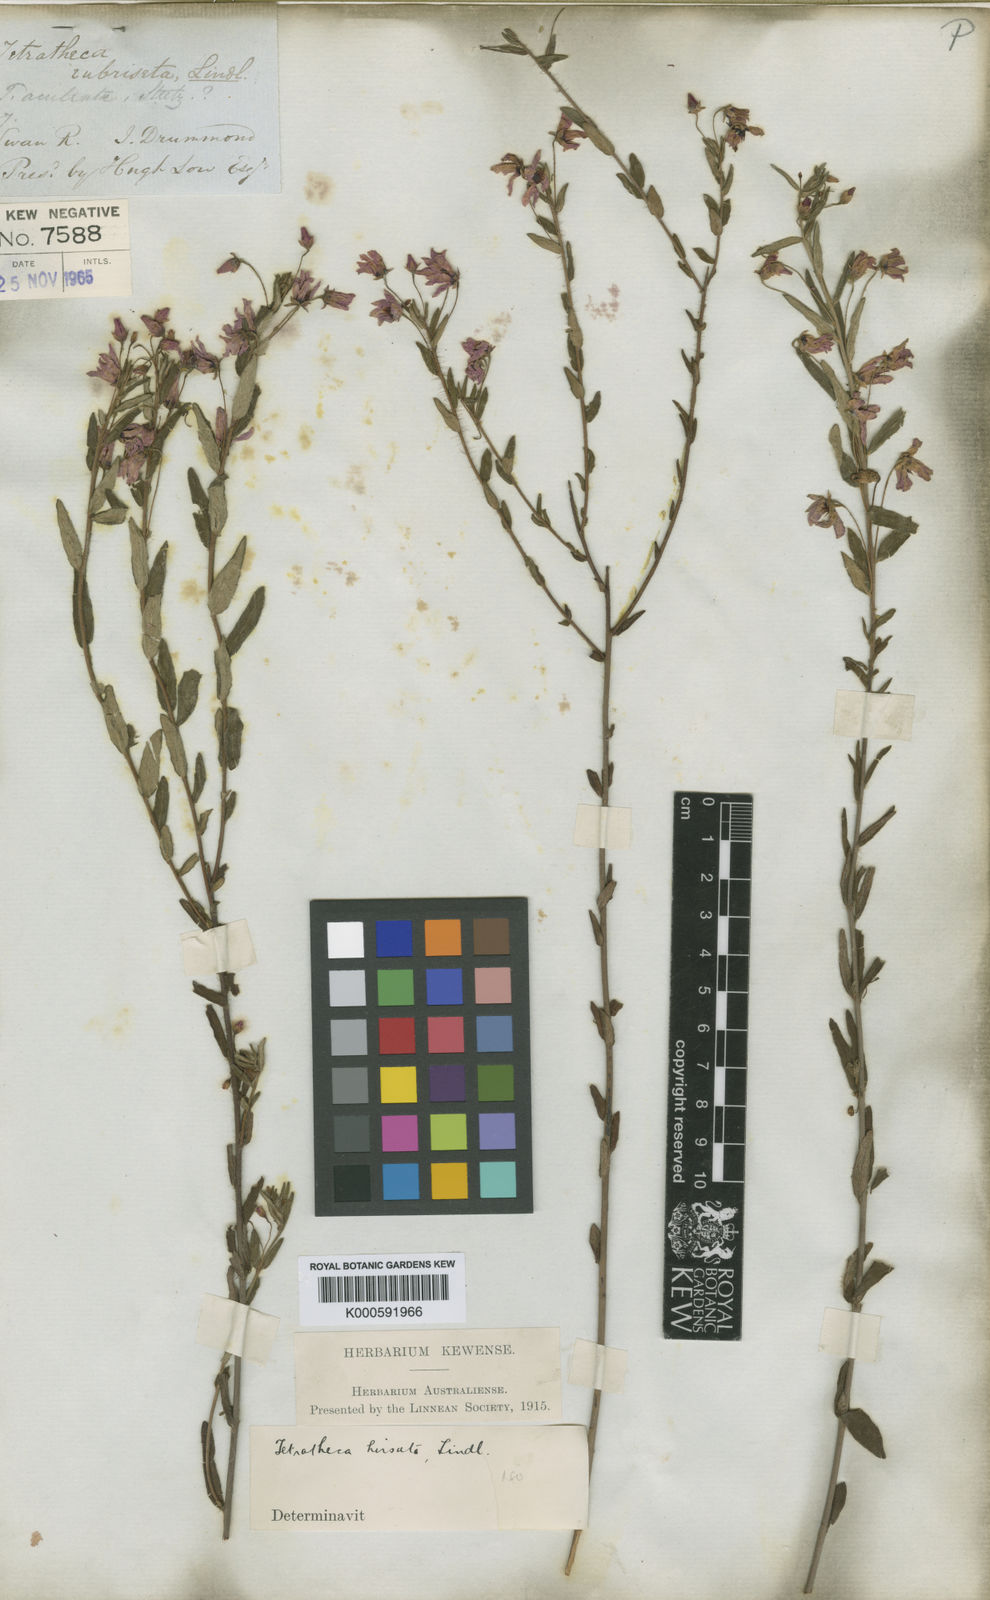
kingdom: Plantae
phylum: Tracheophyta
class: Magnoliopsida
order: Oxalidales
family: Elaeocarpaceae
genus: Tetratheca
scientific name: Tetratheca hirsuta
